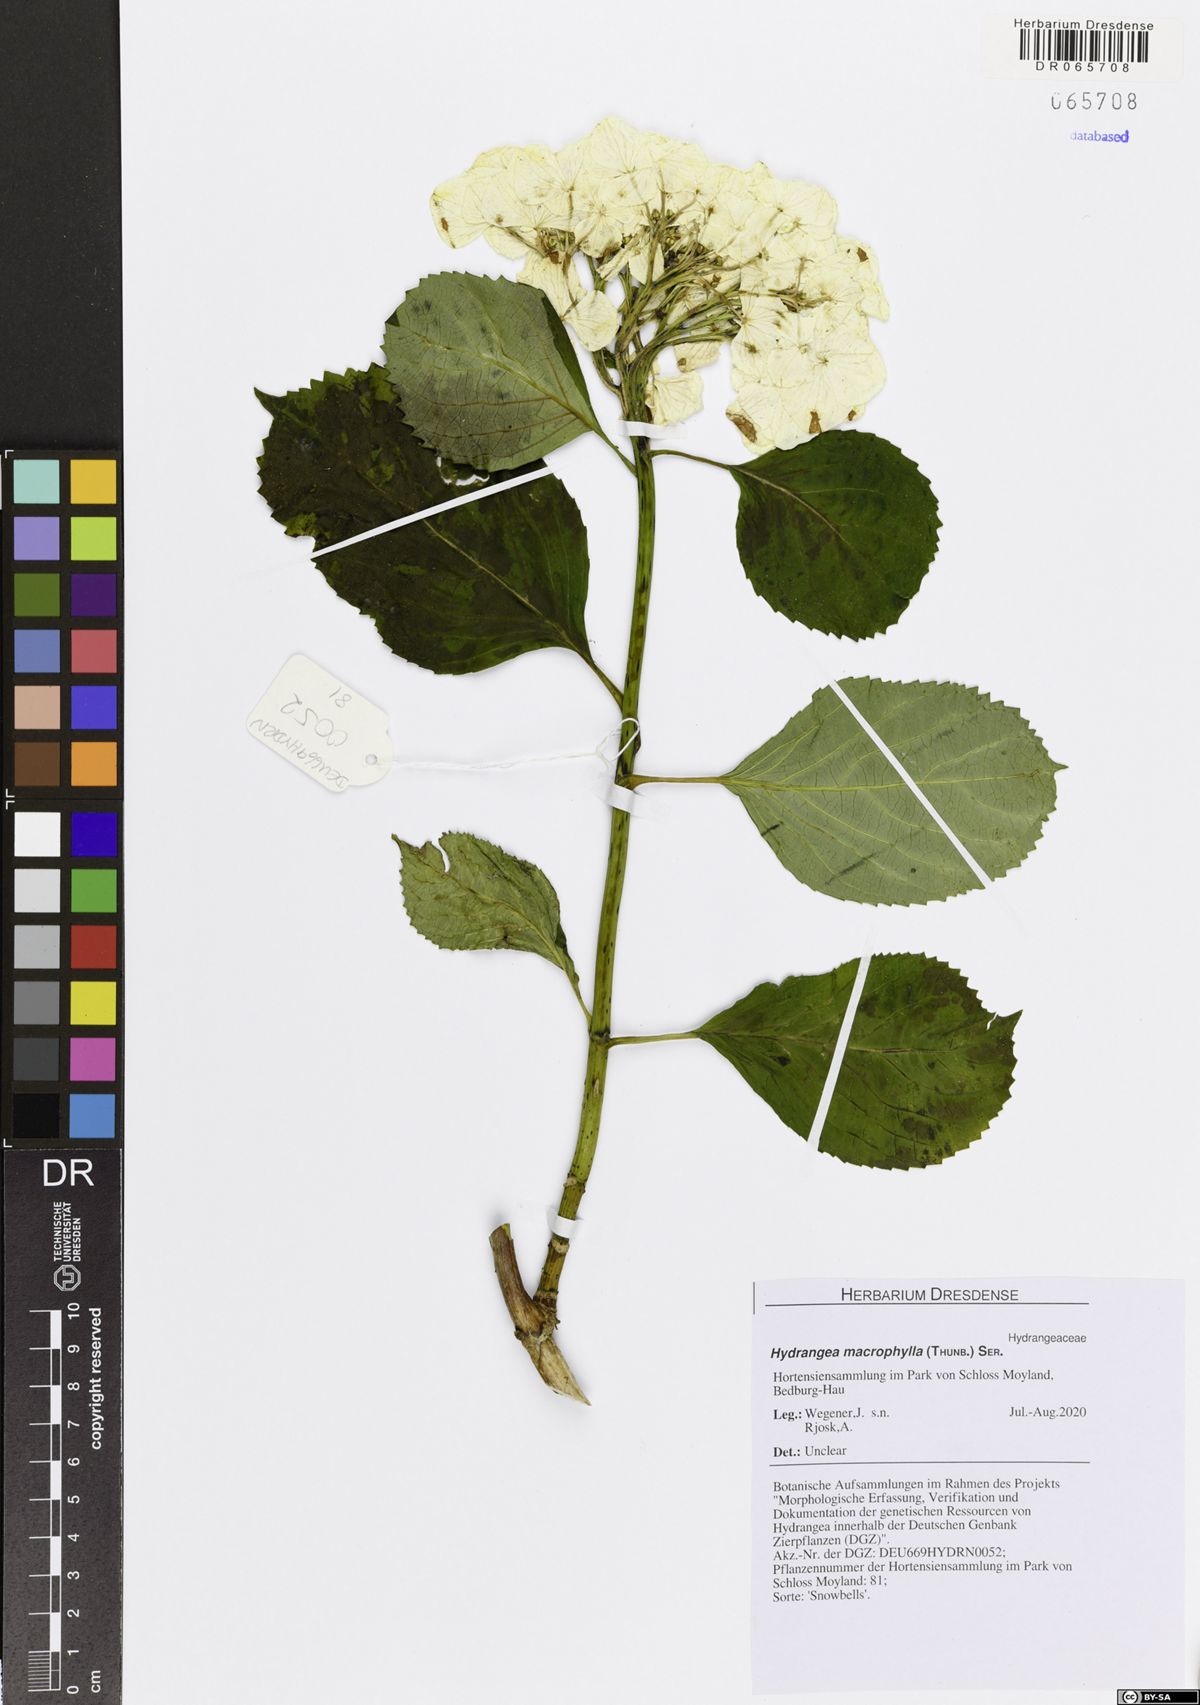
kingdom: Plantae
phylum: Tracheophyta
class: Magnoliopsida
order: Cornales
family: Hydrangeaceae
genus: Hydrangea
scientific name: Hydrangea macrophylla
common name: Hydrangea
